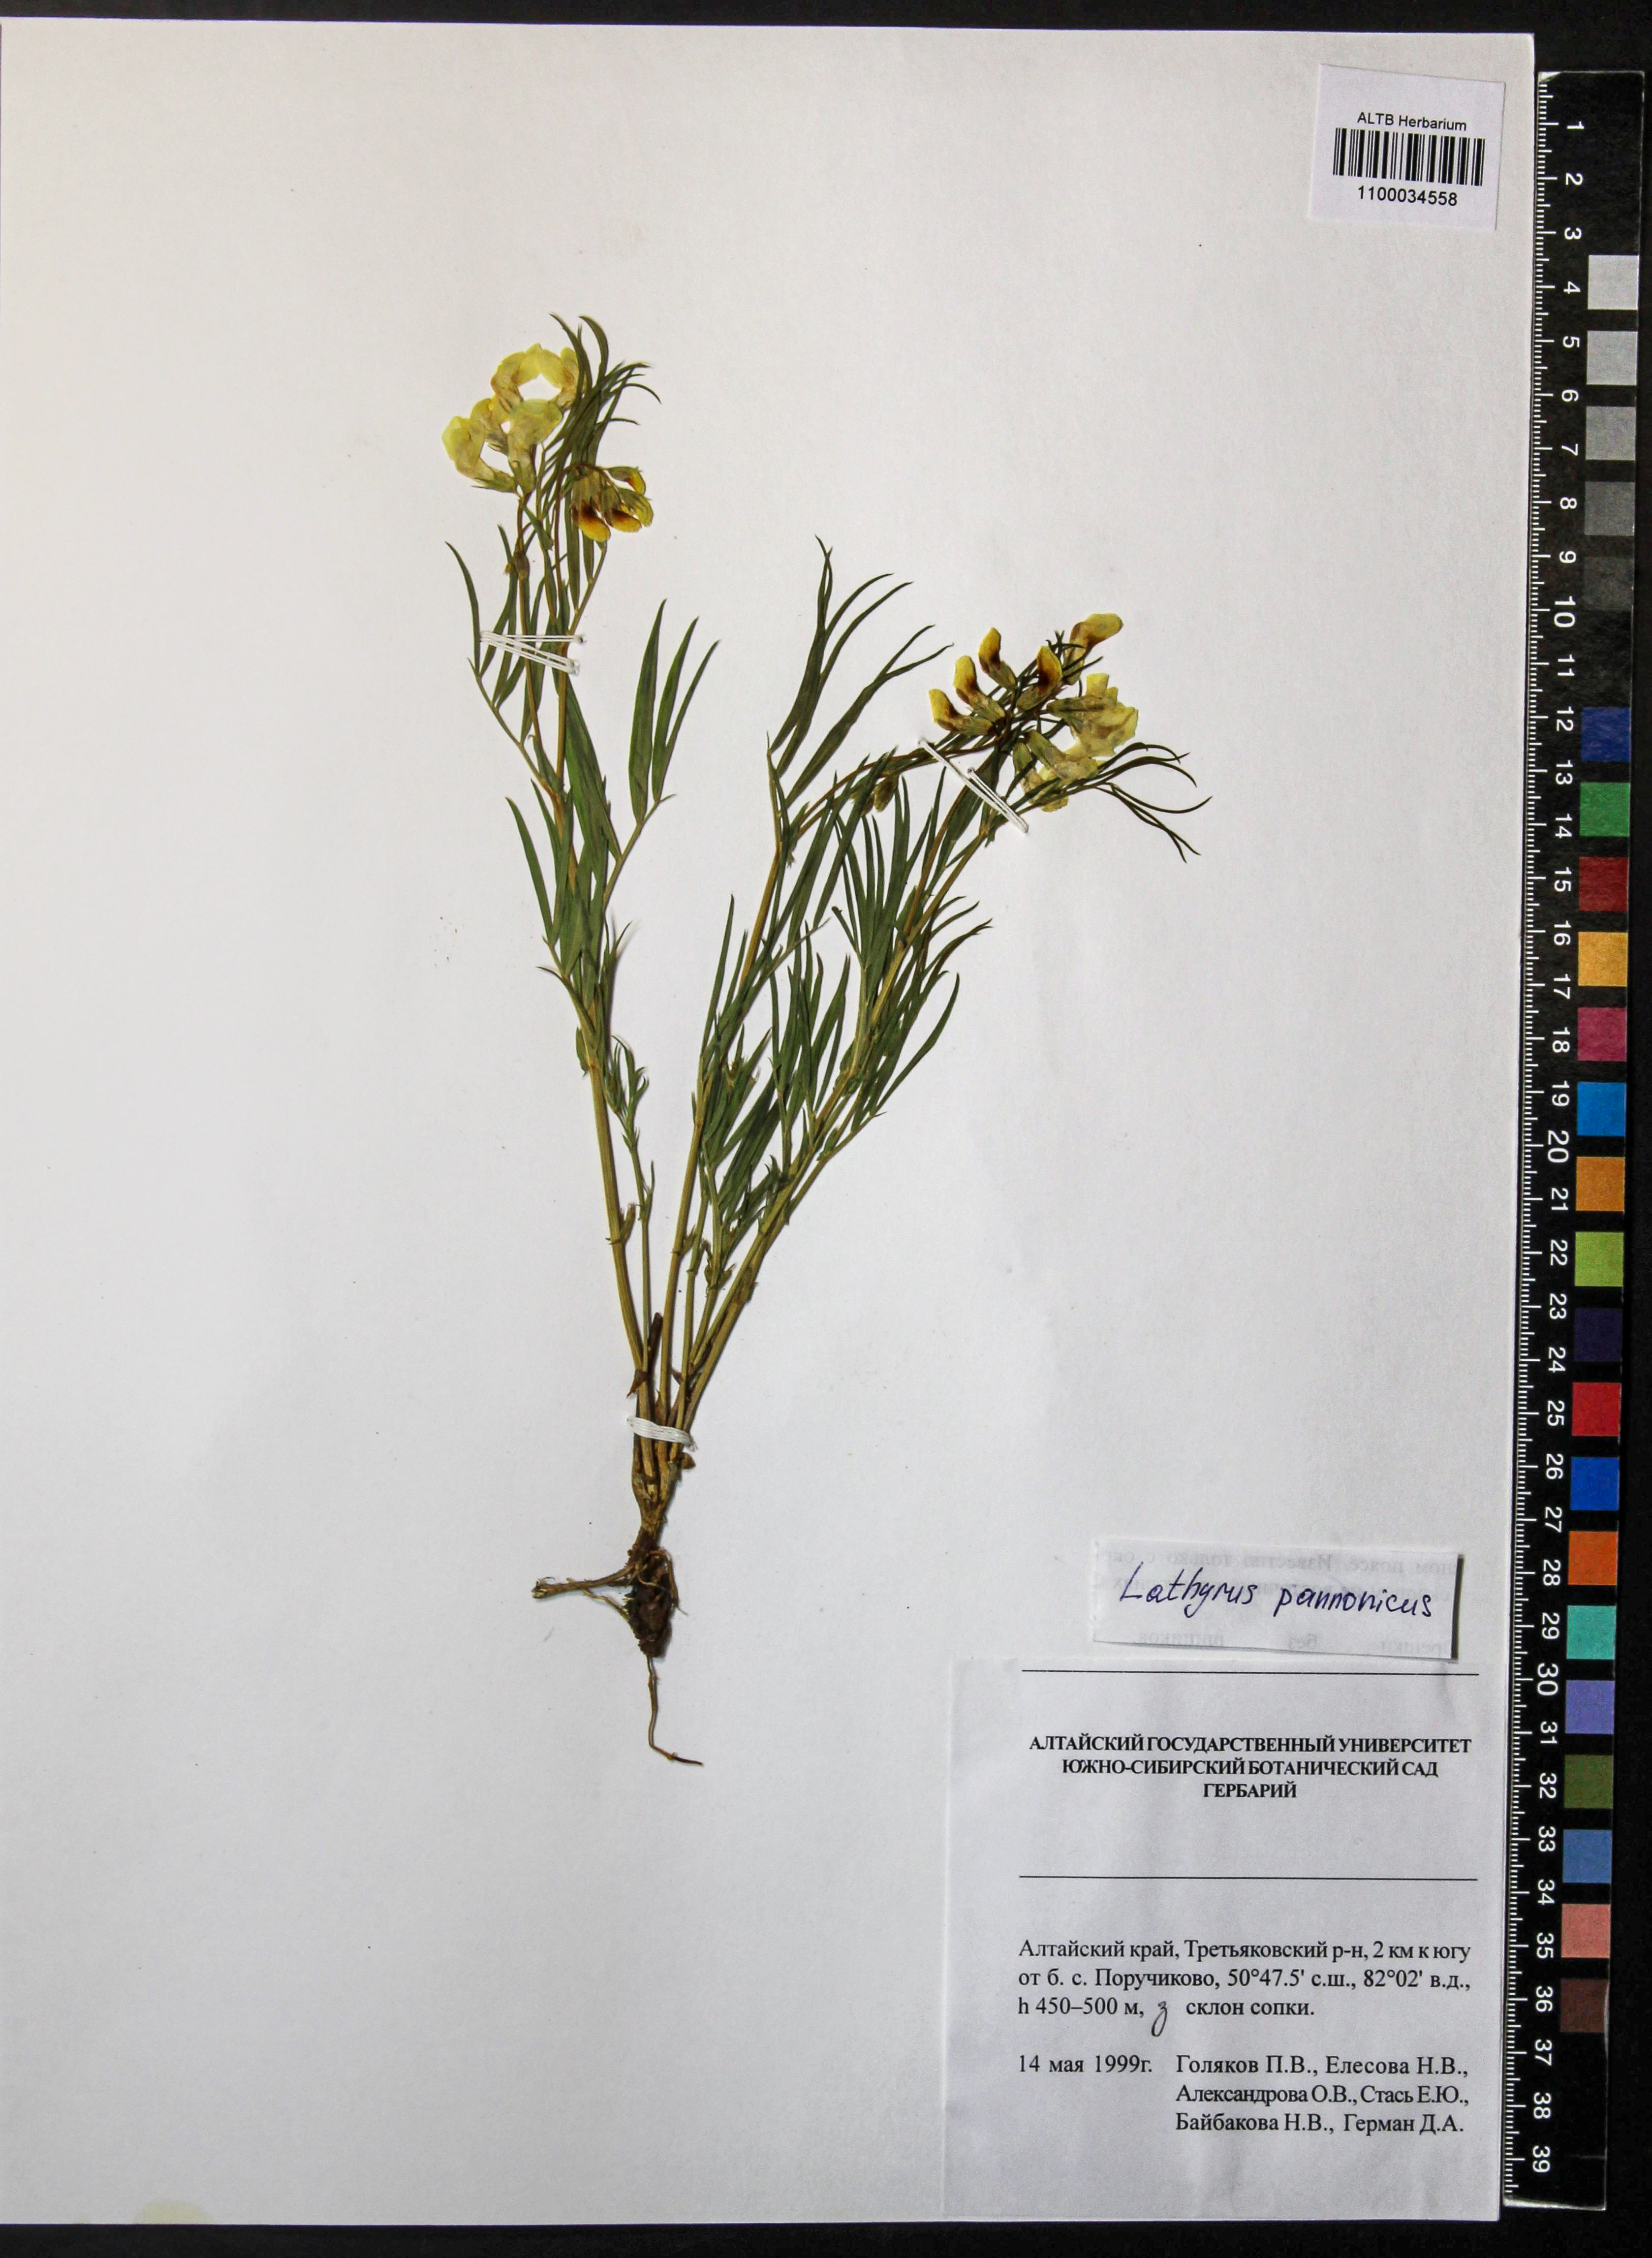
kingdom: Plantae
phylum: Tracheophyta
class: Magnoliopsida
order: Fabales
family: Fabaceae
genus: Lathyrus
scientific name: Lathyrus pannonicus
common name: Pea
